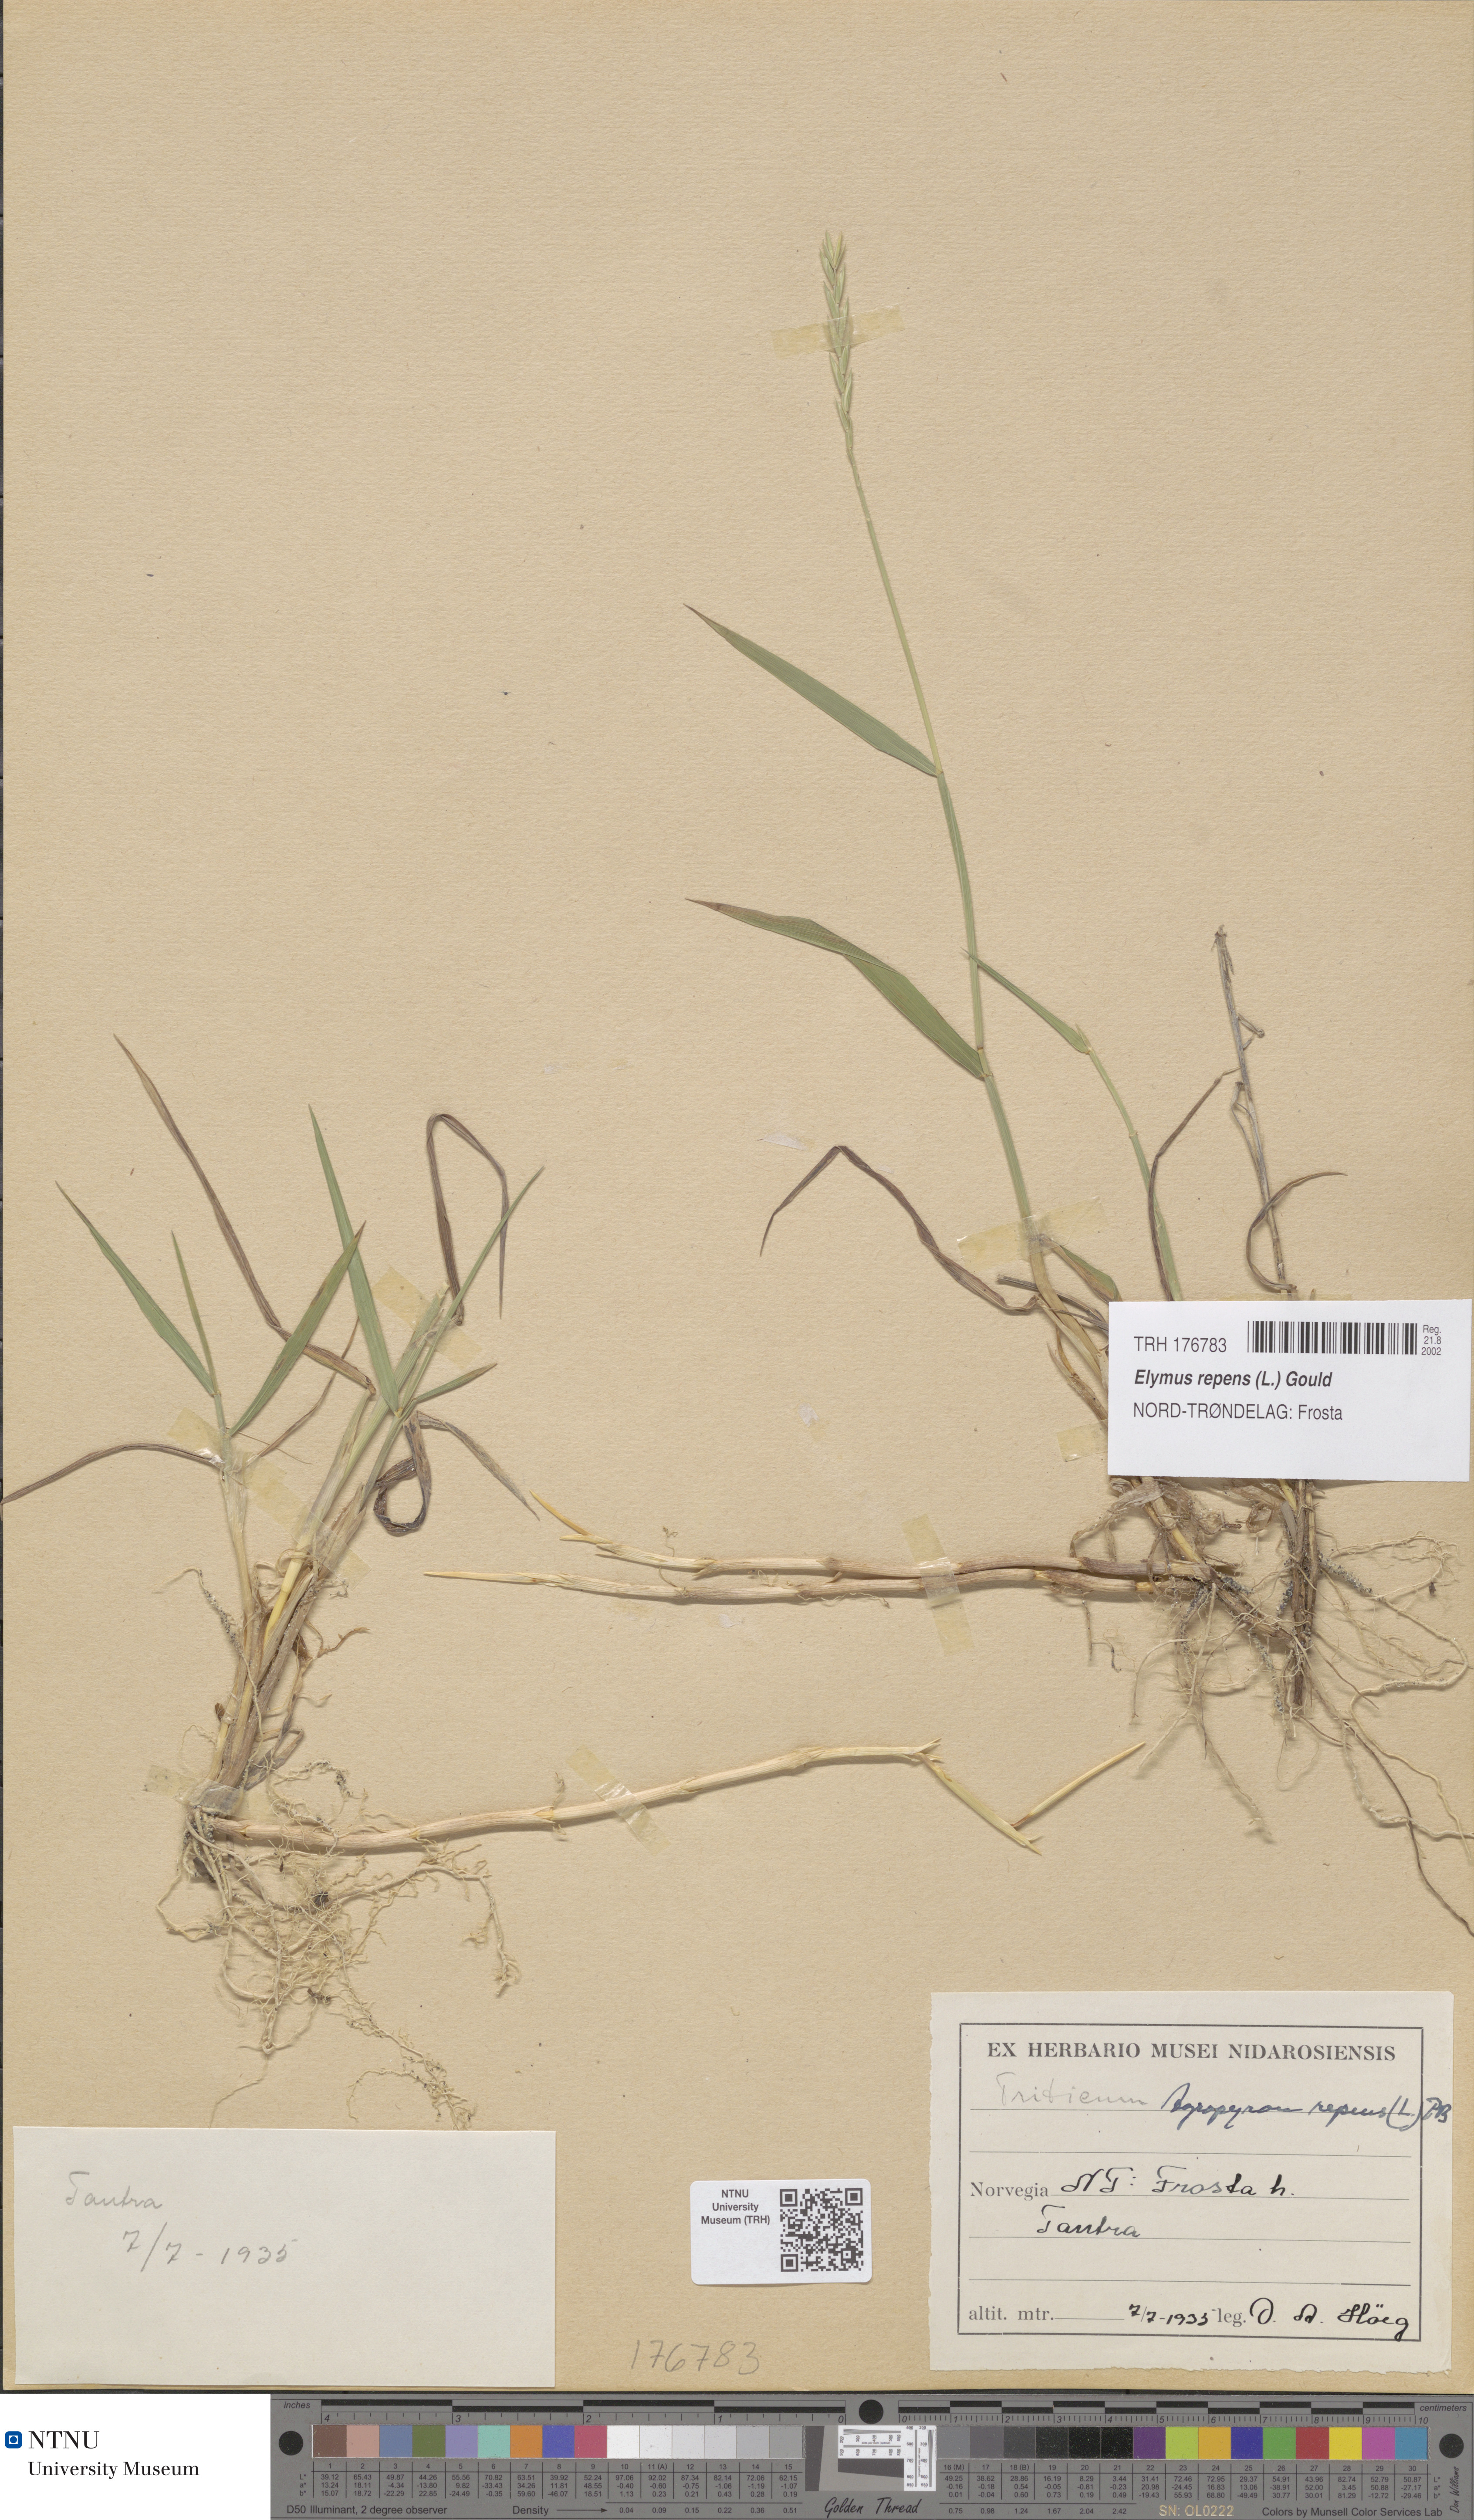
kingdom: Plantae
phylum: Tracheophyta
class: Liliopsida
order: Poales
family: Poaceae
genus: Elymus
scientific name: Elymus repens
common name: Quackgrass
